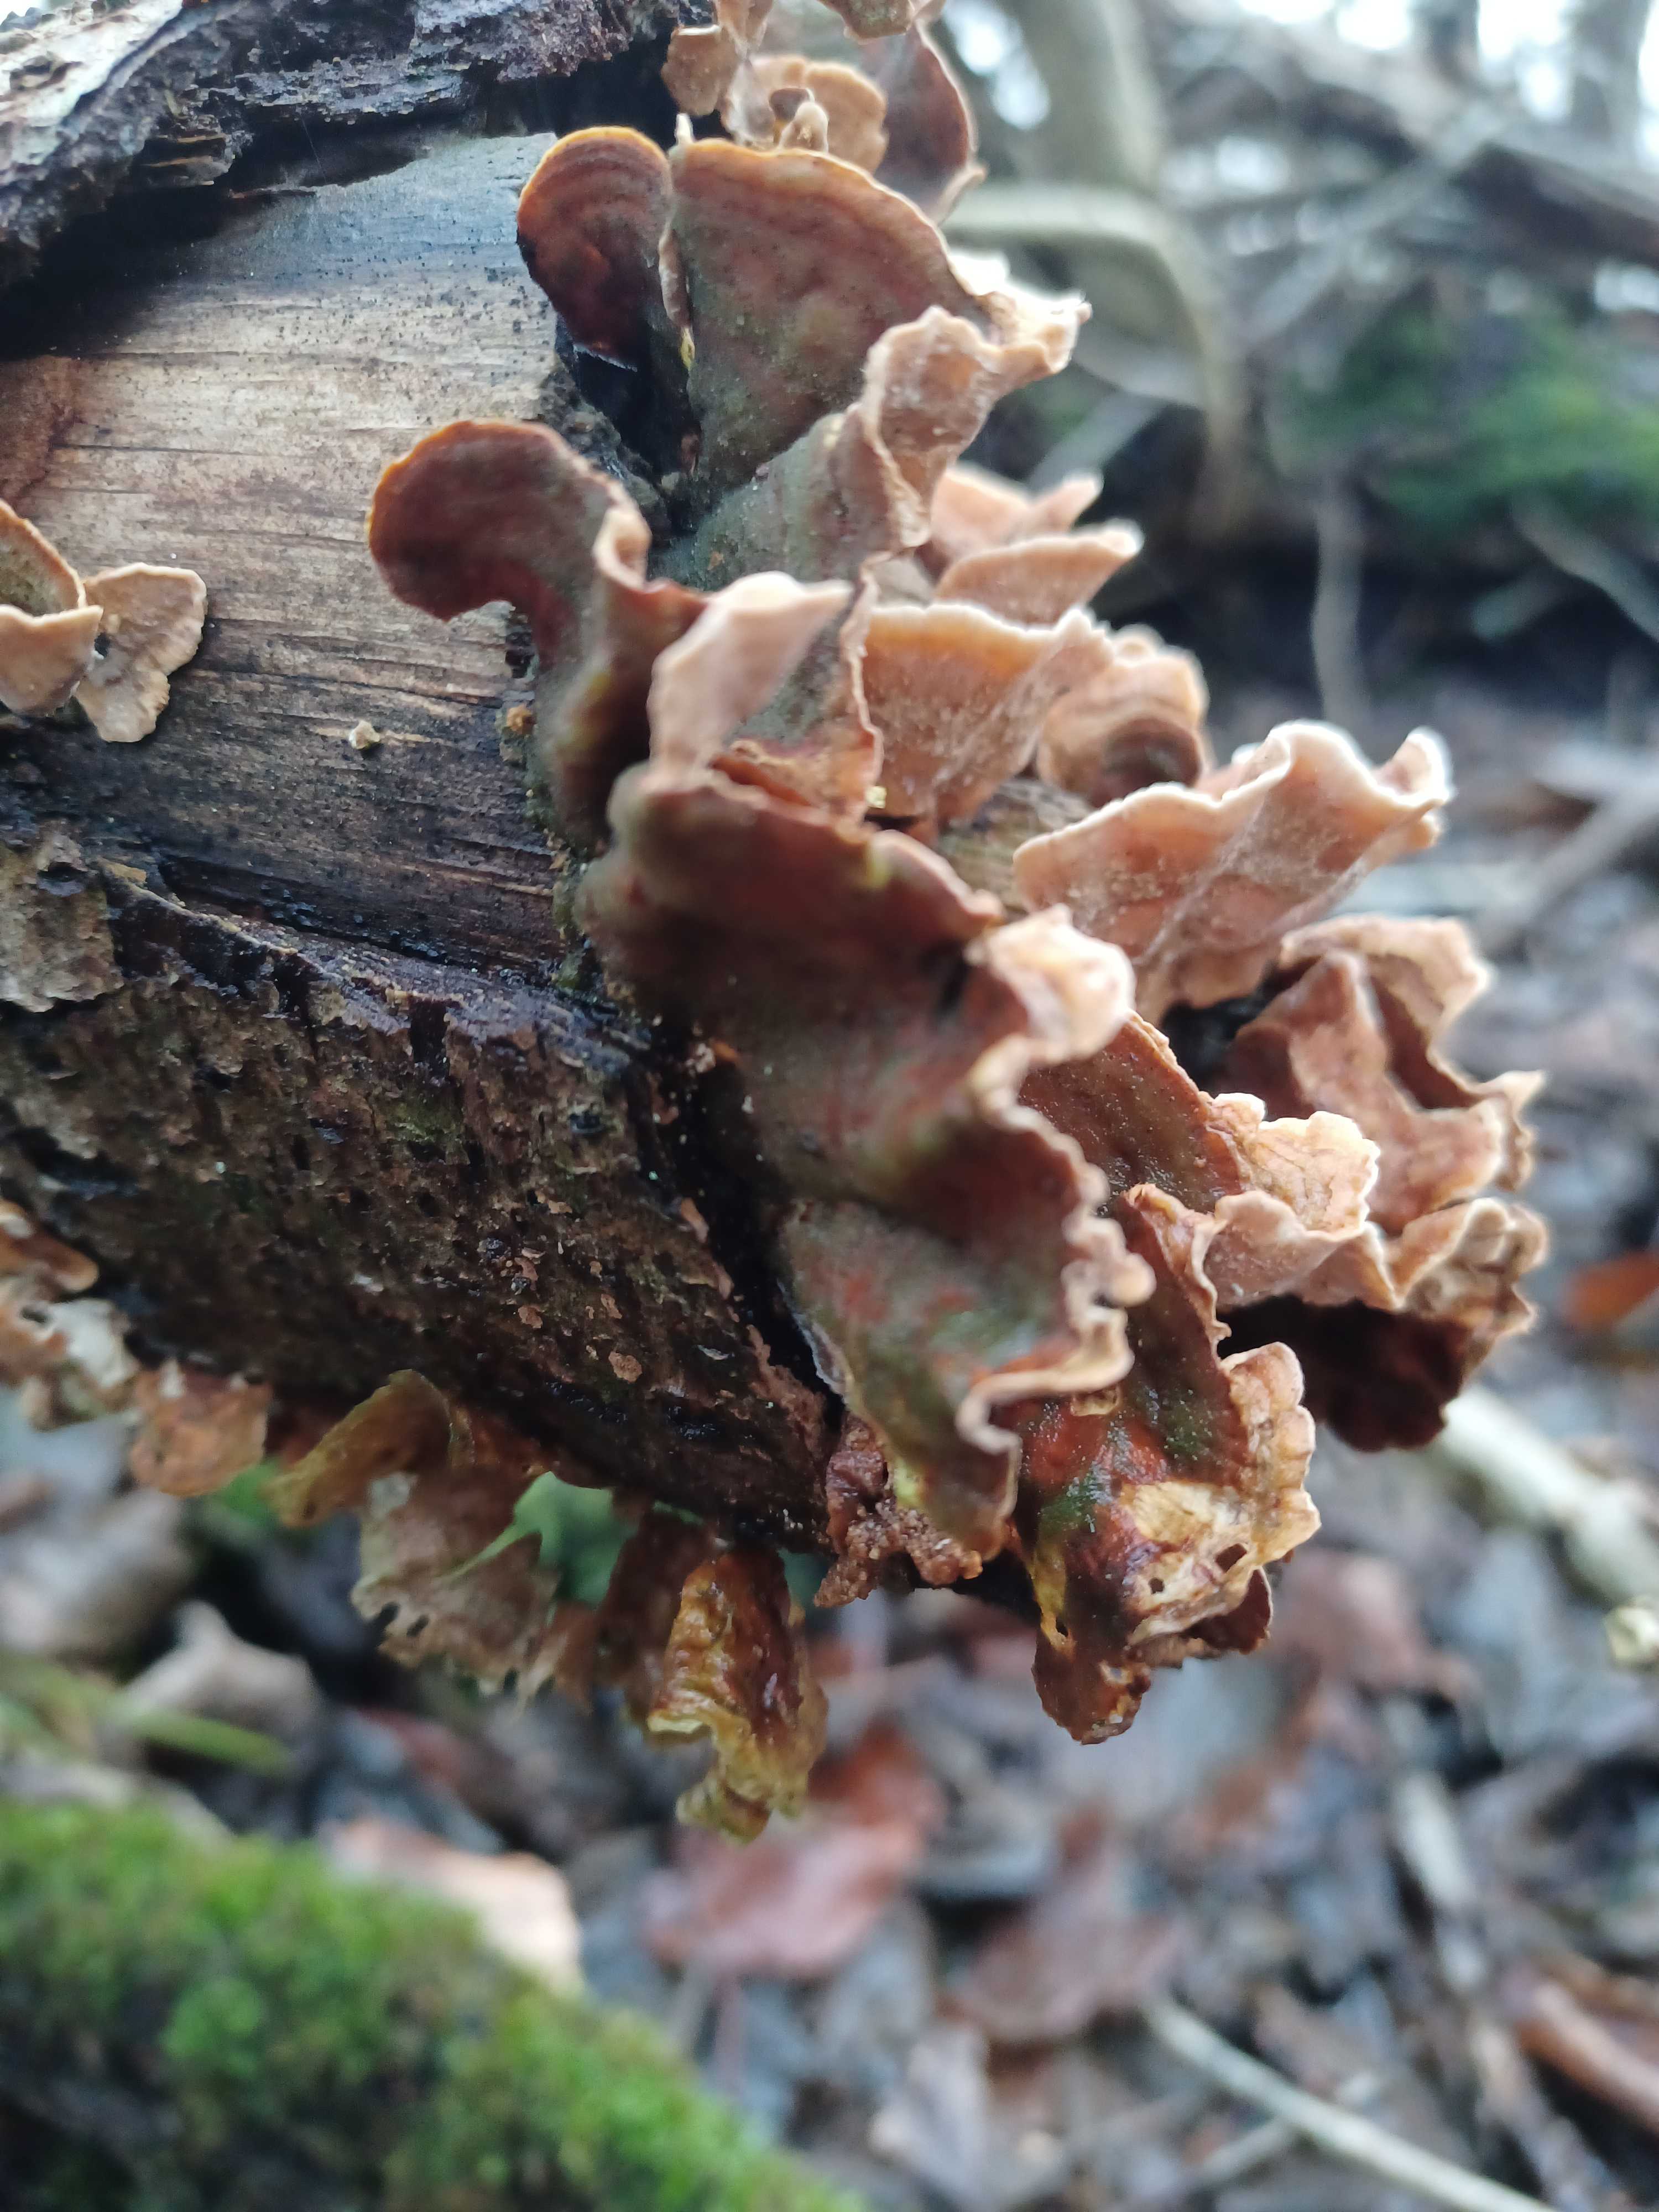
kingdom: Fungi
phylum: Basidiomycota
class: Agaricomycetes
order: Russulales
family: Stereaceae
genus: Stereum
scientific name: Stereum subtomentosum
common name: smuk lædersvamp
